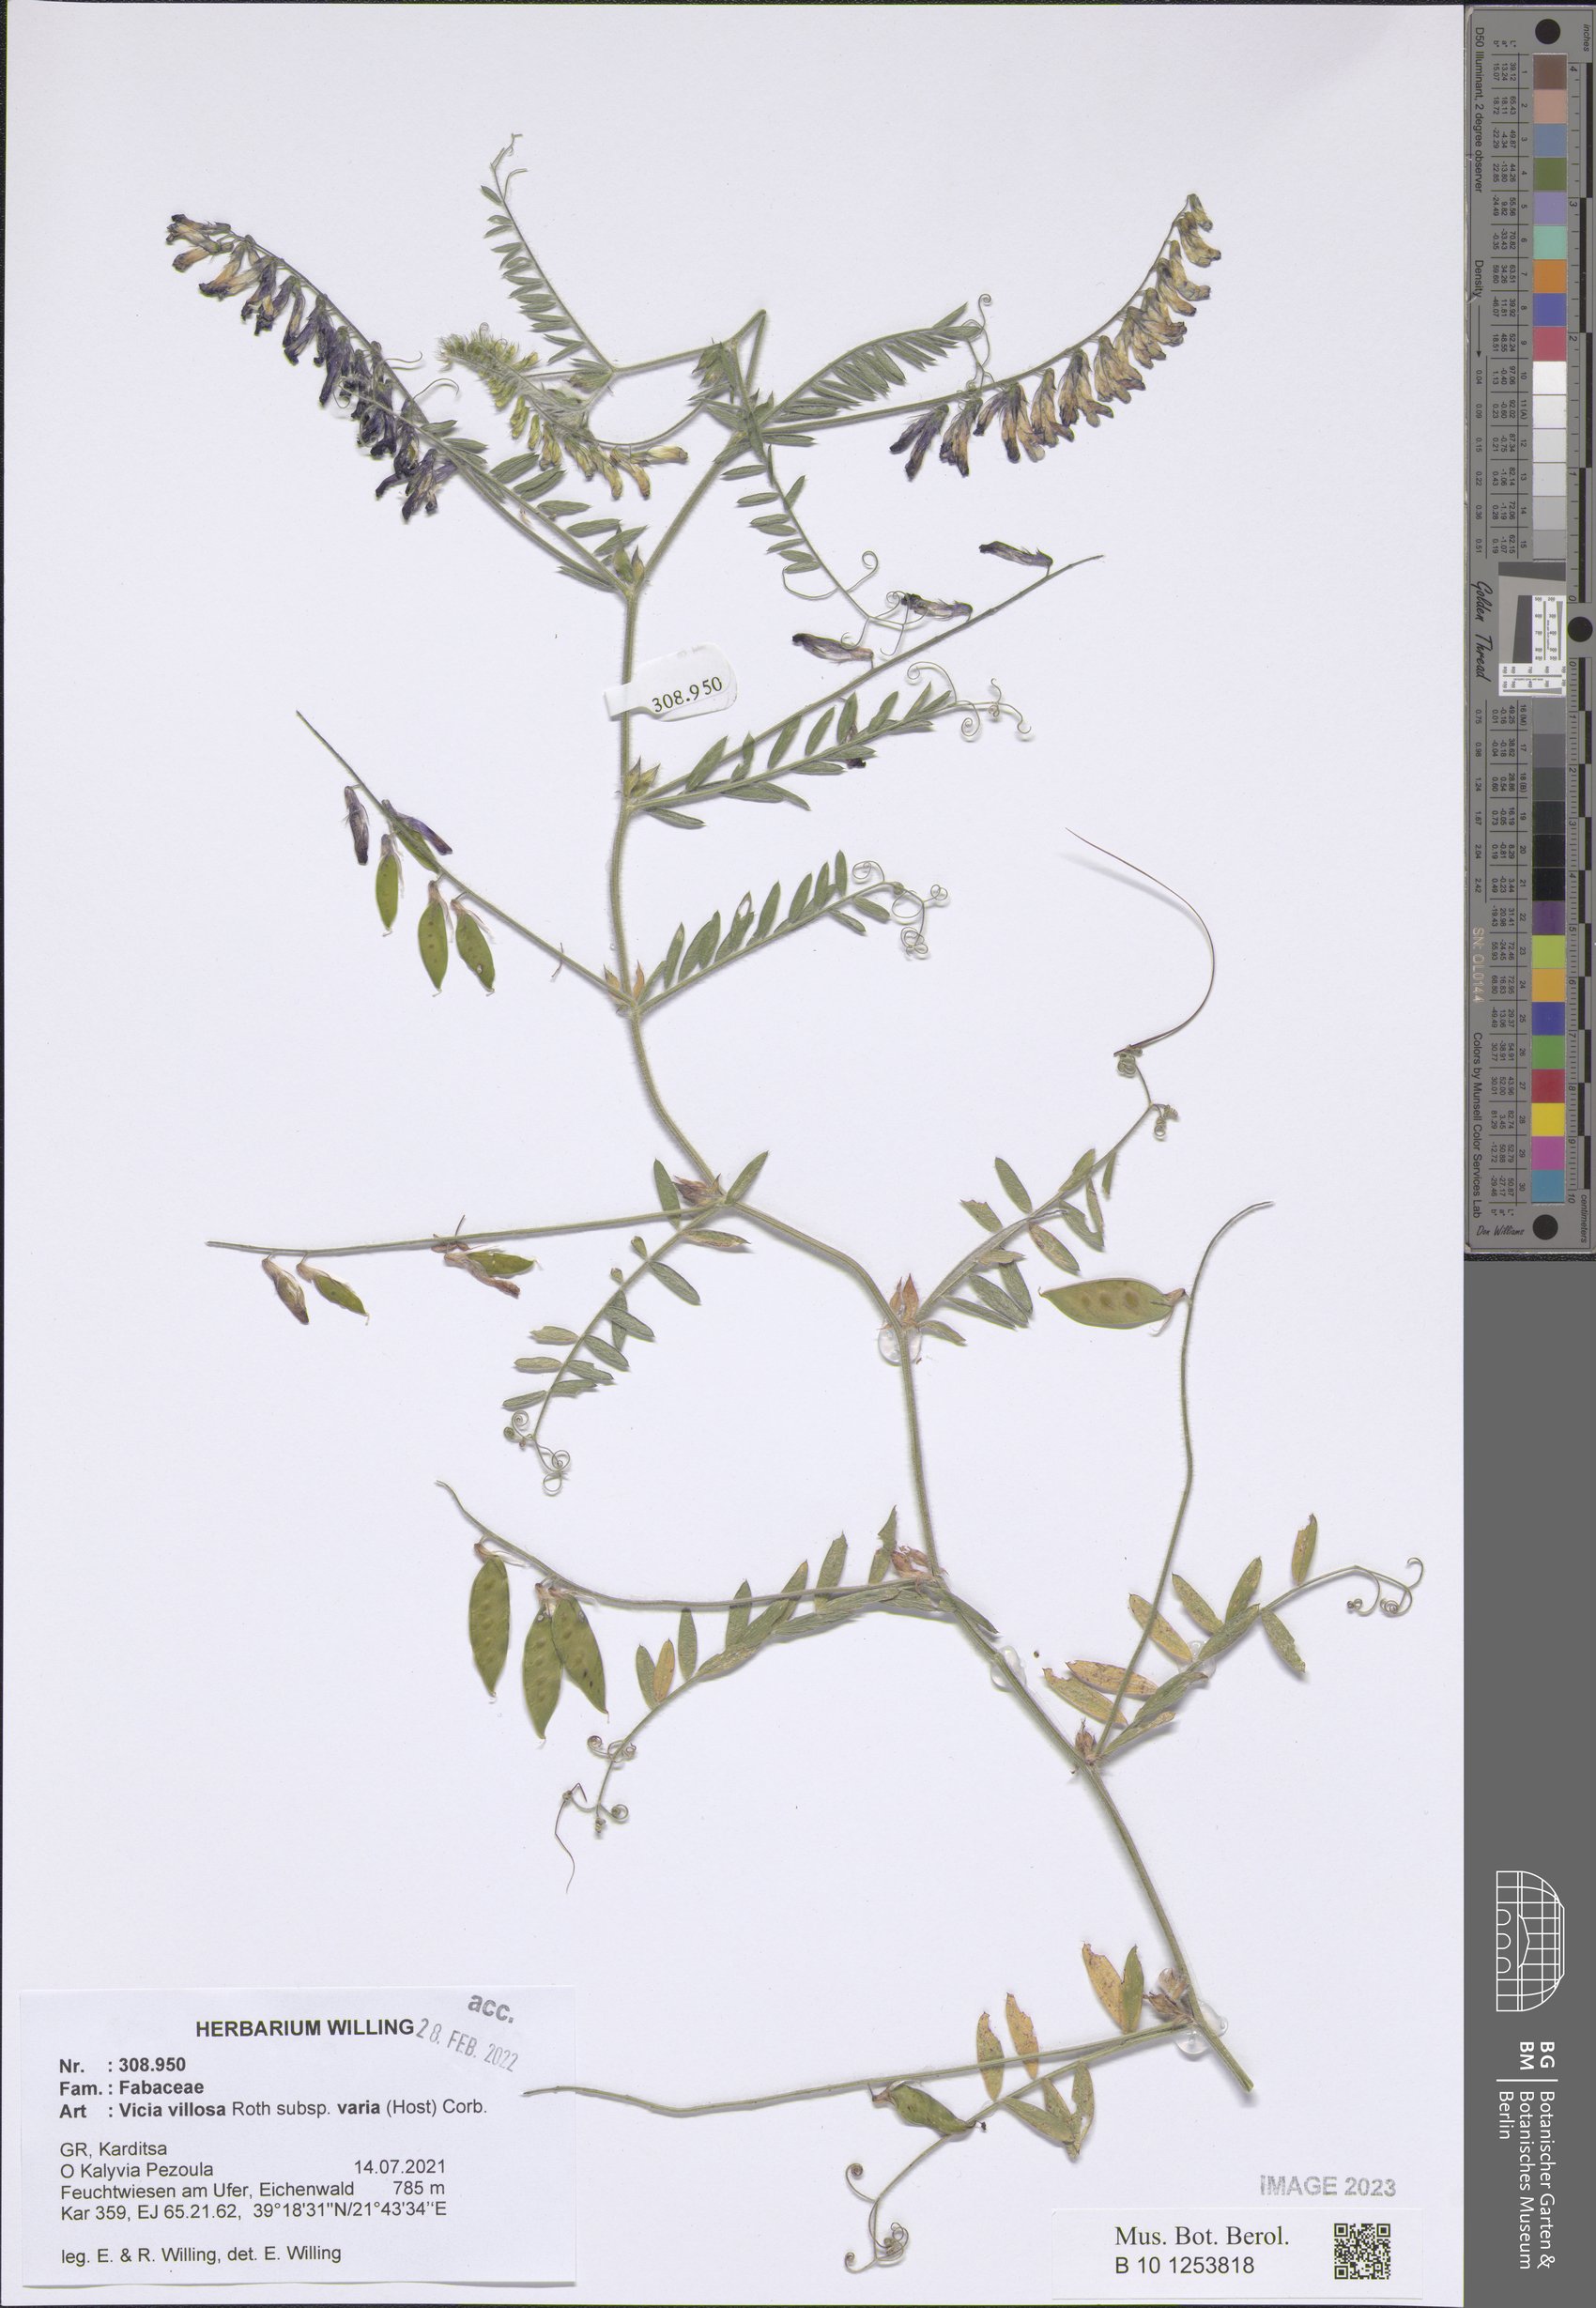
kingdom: Plantae
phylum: Tracheophyta
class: Magnoliopsida
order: Fabales
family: Fabaceae
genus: Vicia
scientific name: Vicia villosa
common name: Fodder vetch
